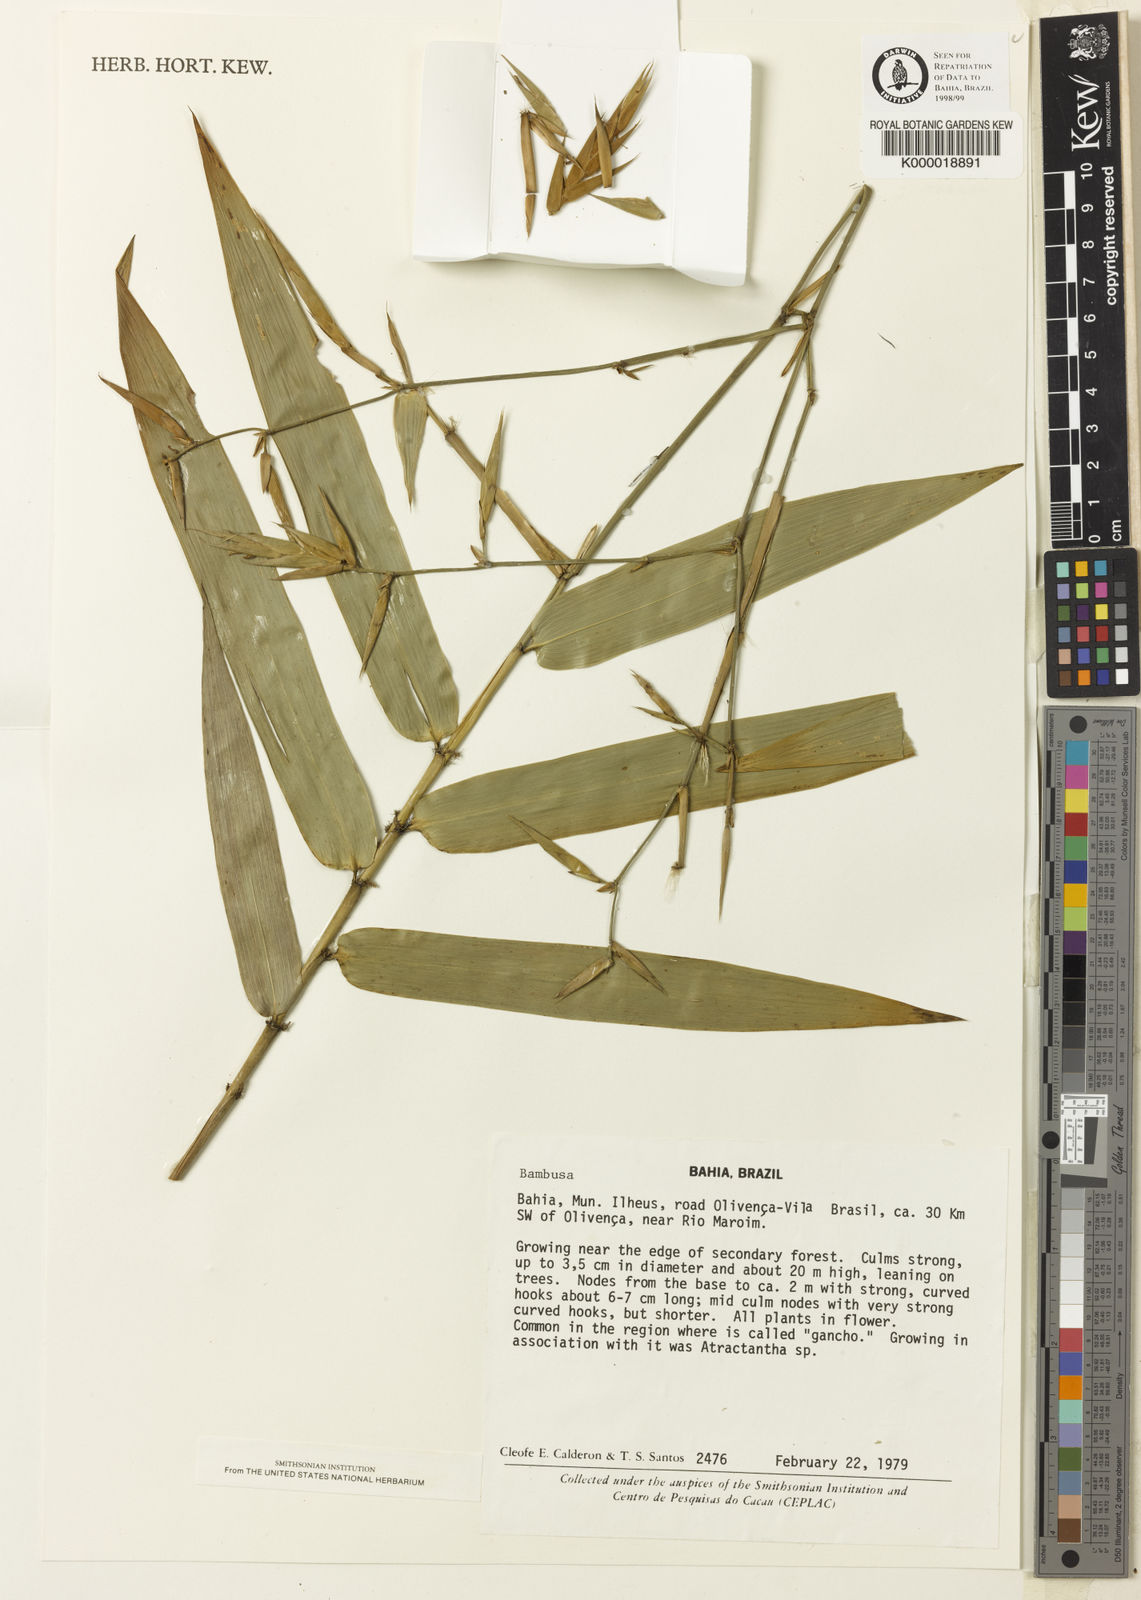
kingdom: Plantae
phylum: Tracheophyta
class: Liliopsida
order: Poales
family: Poaceae
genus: Guadua
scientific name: Guadua calderoniana
